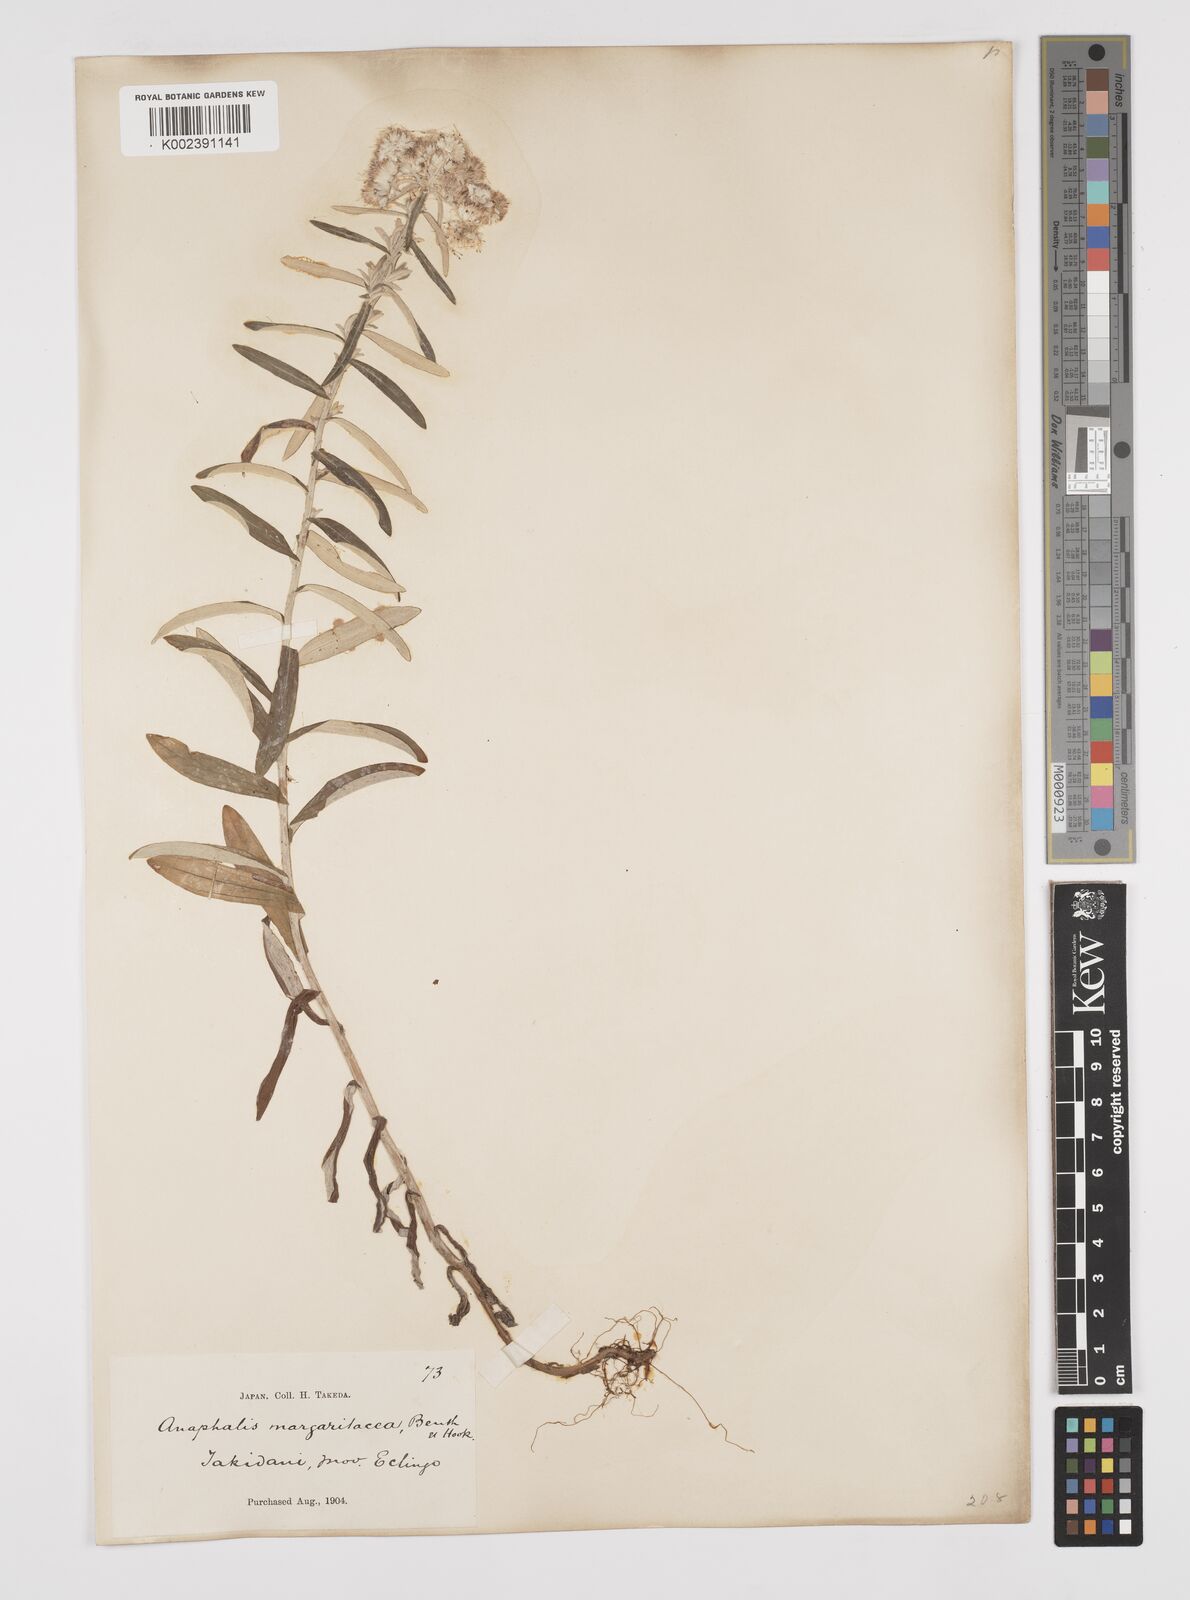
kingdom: Plantae
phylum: Tracheophyta
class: Magnoliopsida
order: Asterales
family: Asteraceae
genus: Anaphalis
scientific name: Anaphalis margaritacea
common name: Pearly everlasting
